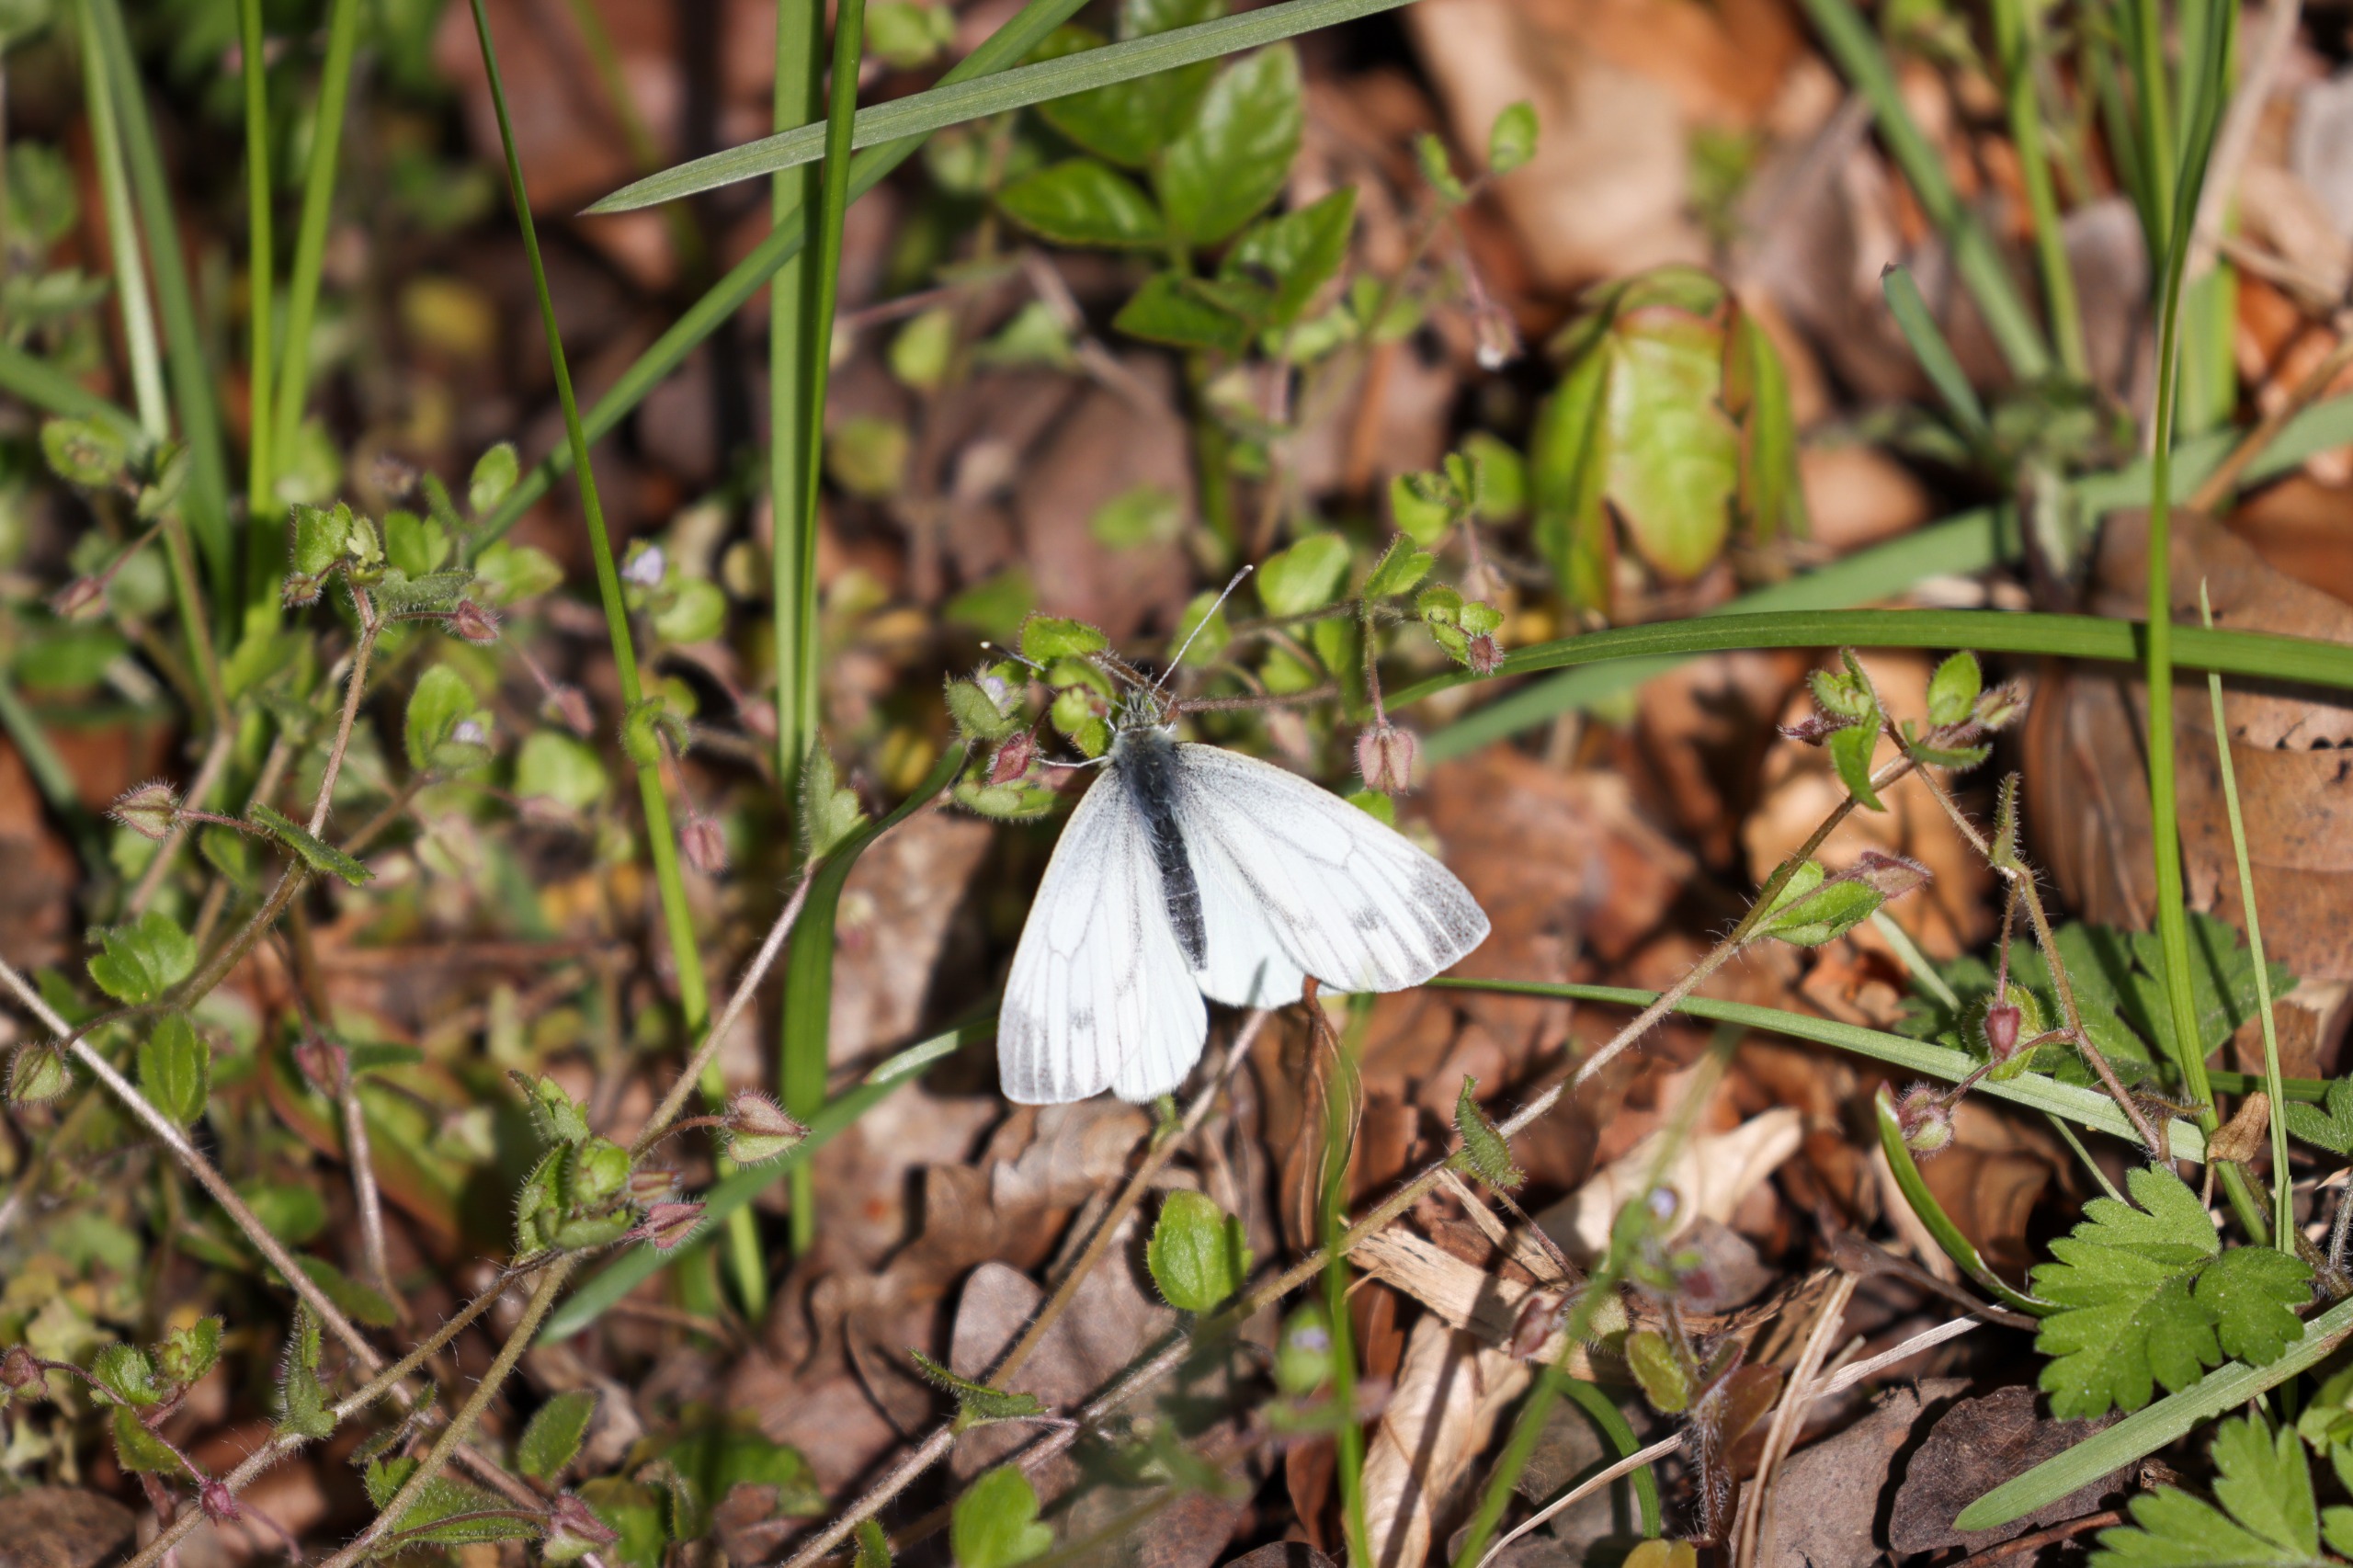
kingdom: Animalia
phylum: Arthropoda
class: Insecta
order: Lepidoptera
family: Pieridae
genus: Pieris
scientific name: Pieris napi
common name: Grønåret kålsommerfugl
